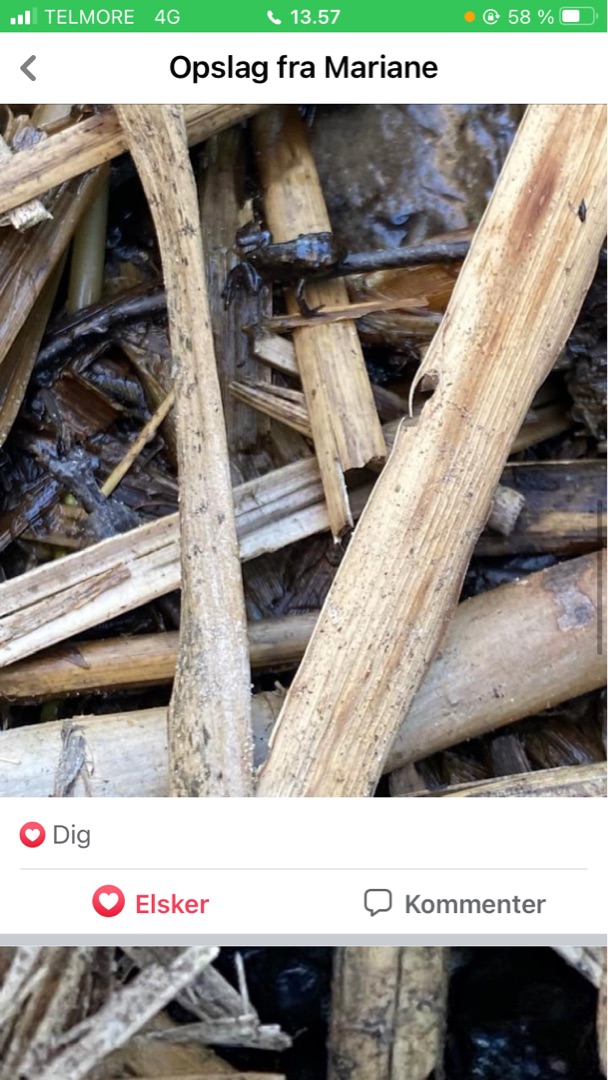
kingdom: Animalia
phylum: Chordata
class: Amphibia
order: Anura
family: Bufonidae
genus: Bufo
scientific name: Bufo bufo
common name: Skrubtudse
